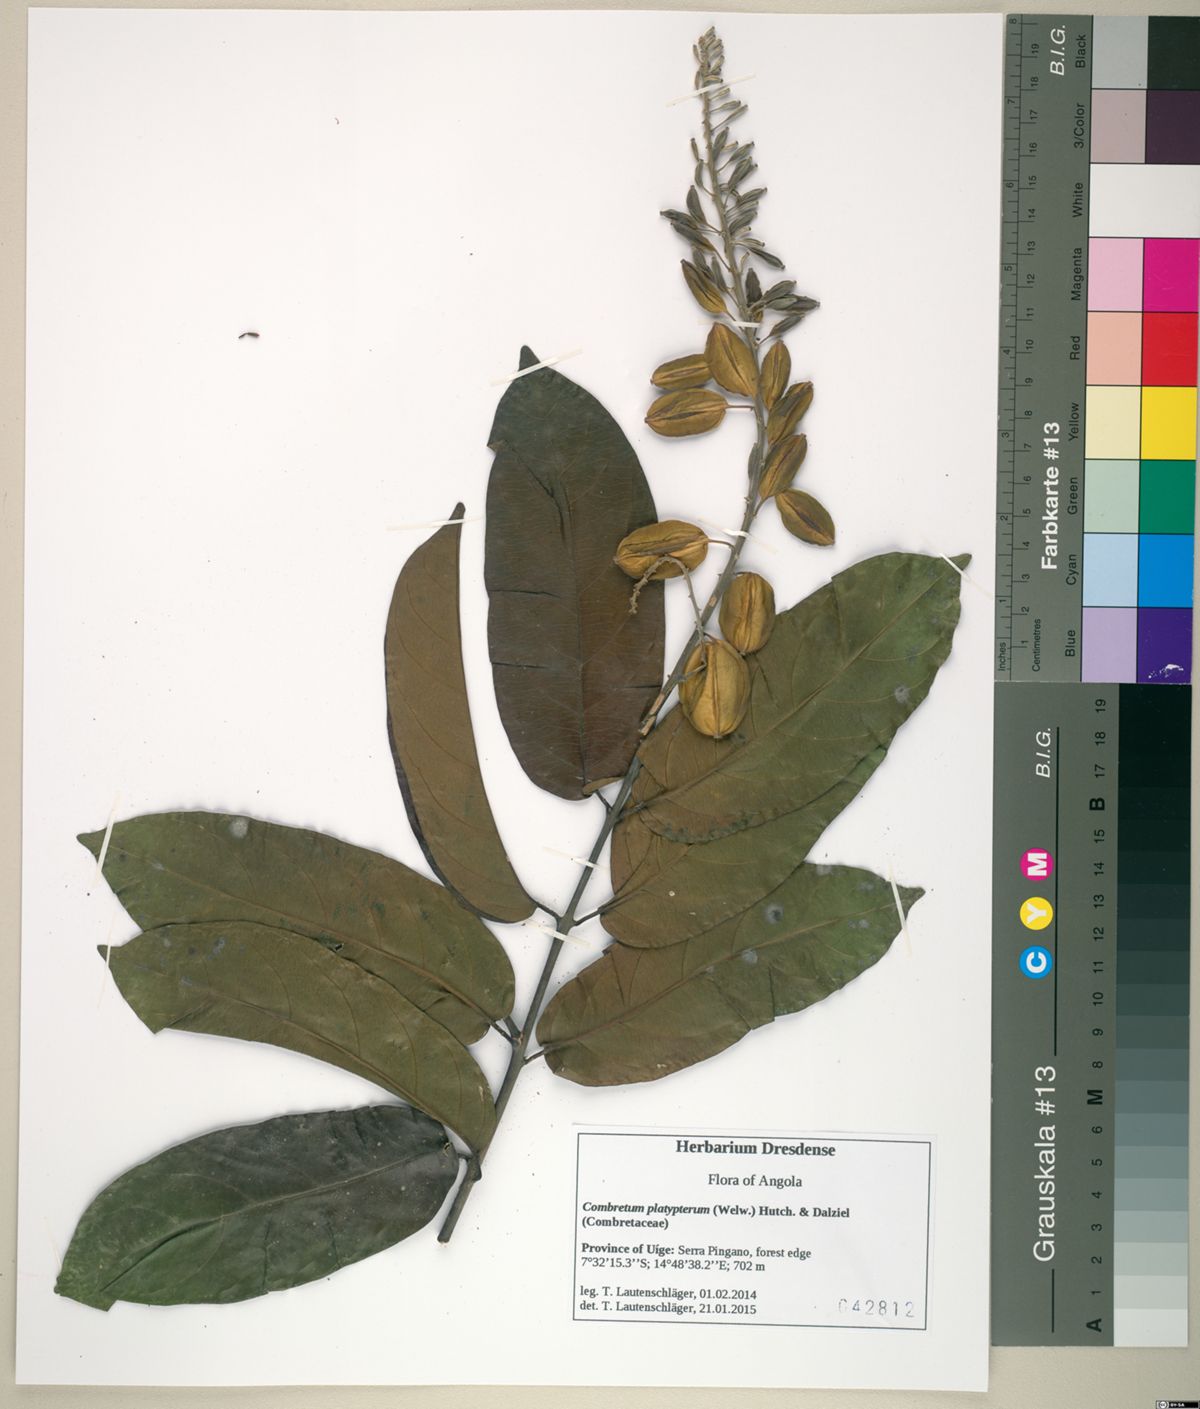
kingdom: Plantae
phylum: Tracheophyta
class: Magnoliopsida
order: Myrtales
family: Combretaceae
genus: Combretum
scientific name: Combretum platypterum
